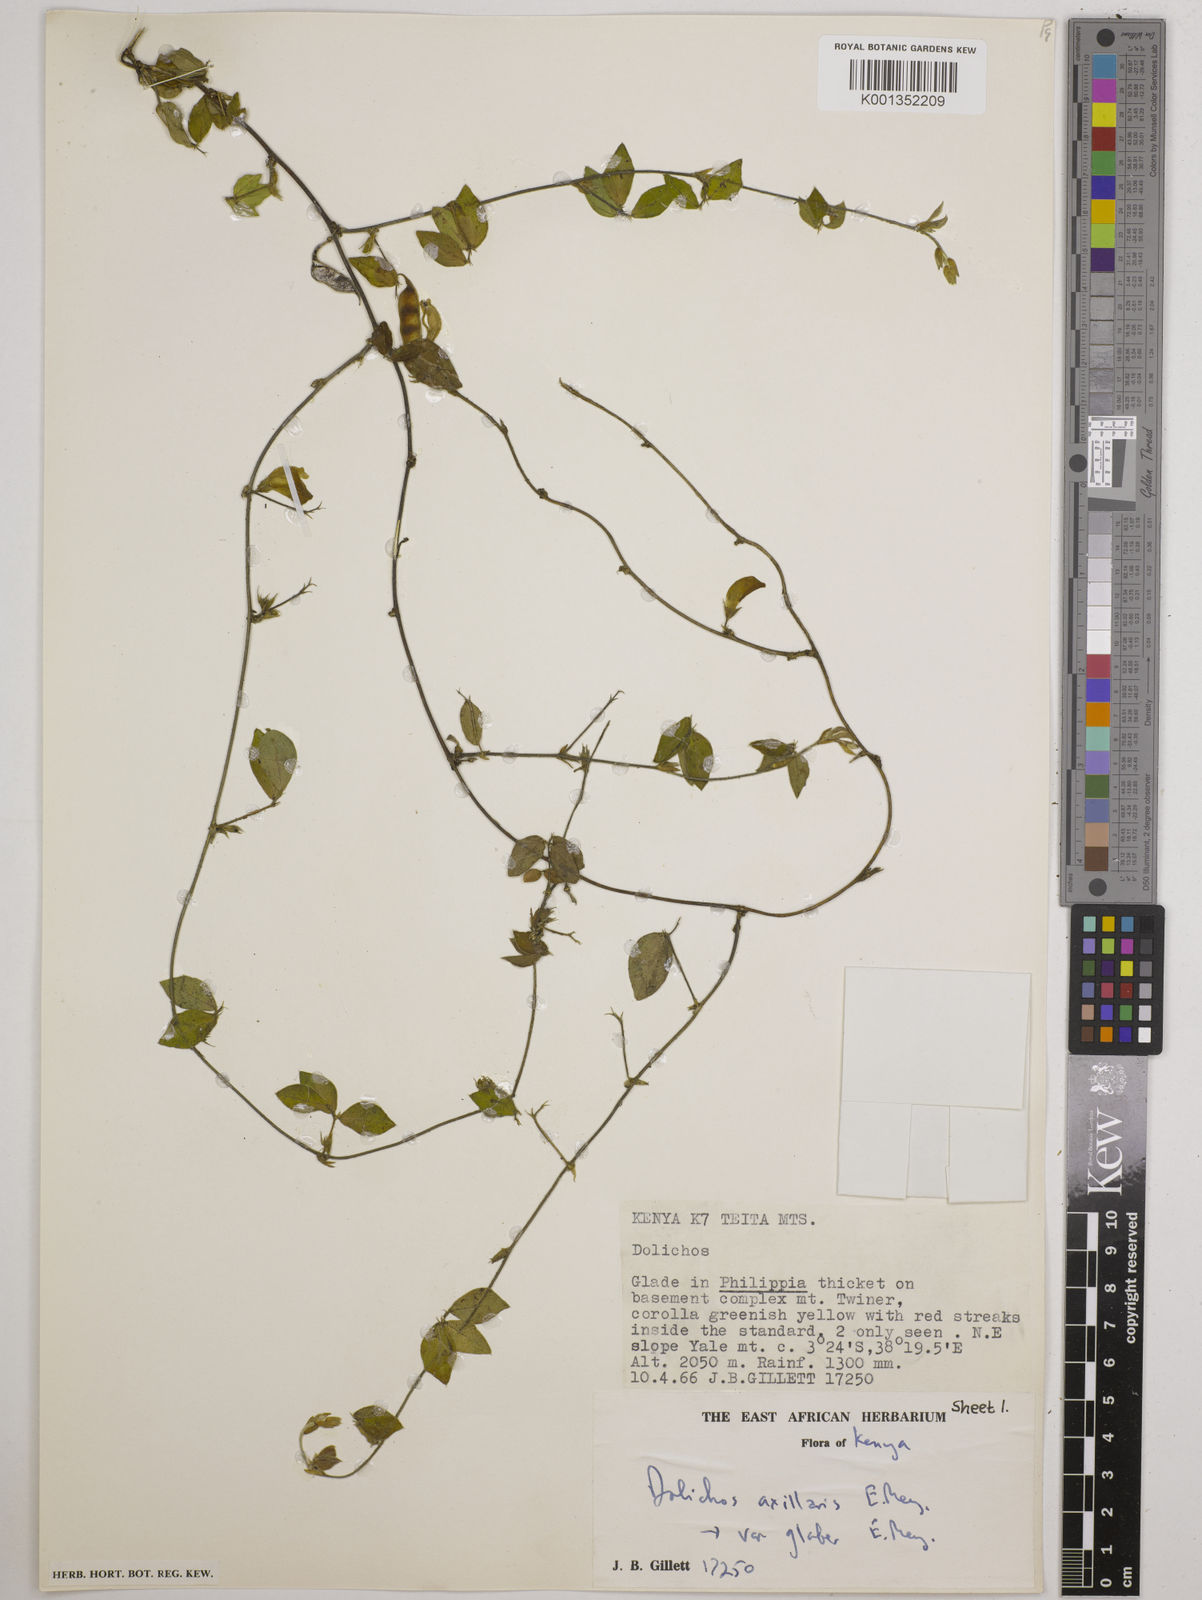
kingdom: Plantae
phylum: Tracheophyta
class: Magnoliopsida
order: Fabales
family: Fabaceae
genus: Macrotyloma
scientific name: Macrotyloma axillare
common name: Perennial horsegram
